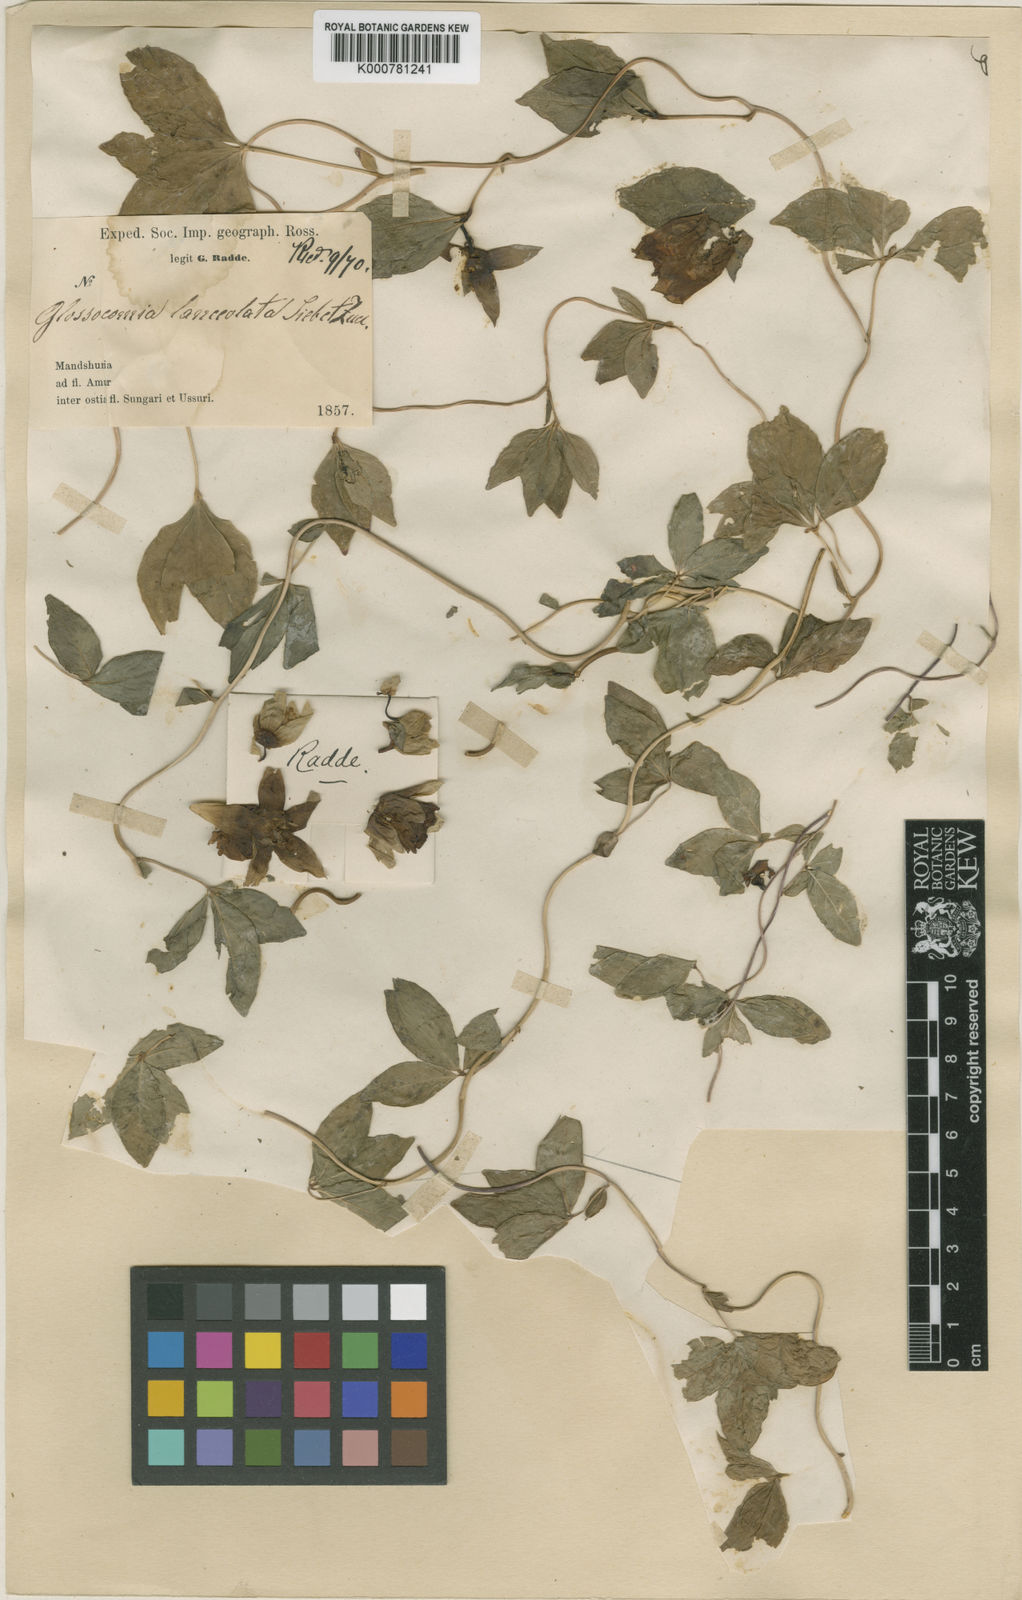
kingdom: Plantae
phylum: Tracheophyta
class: Magnoliopsida
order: Asterales
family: Campanulaceae
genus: Codonopsis
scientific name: Codonopsis ussuriensis
